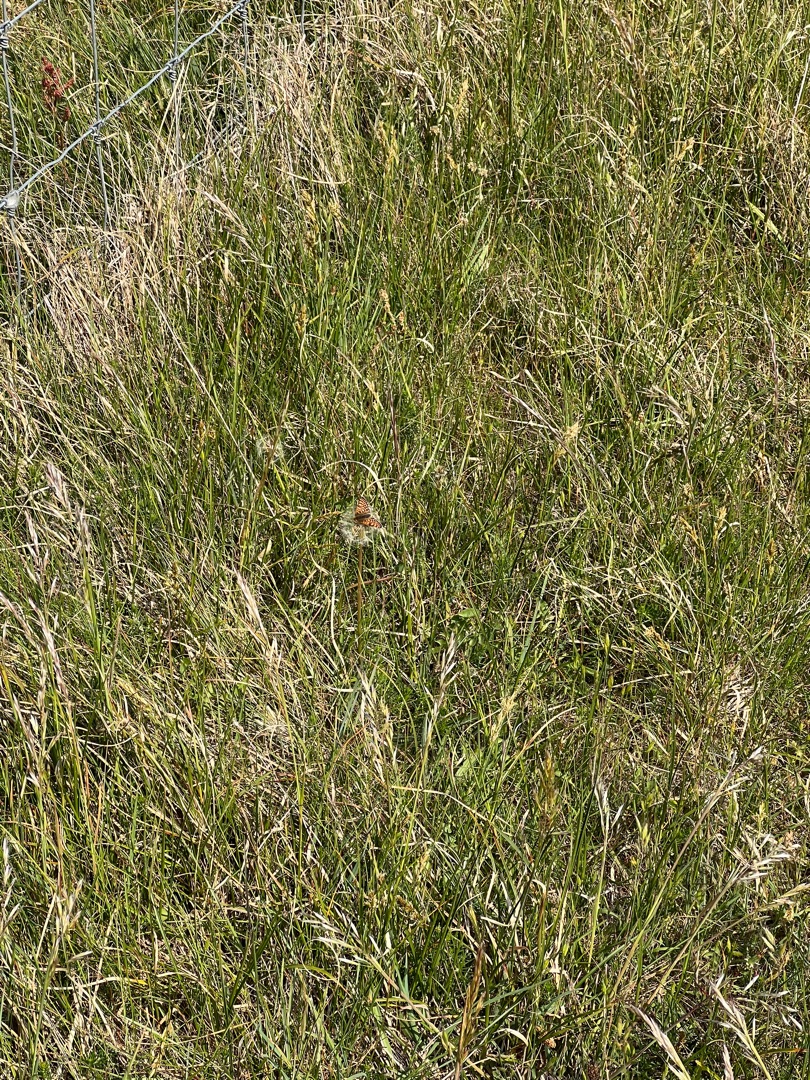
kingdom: Animalia
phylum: Arthropoda
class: Insecta
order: Lepidoptera
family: Nymphalidae
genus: Melitaea
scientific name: Melitaea cinxia
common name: Okkergul pletvinge
